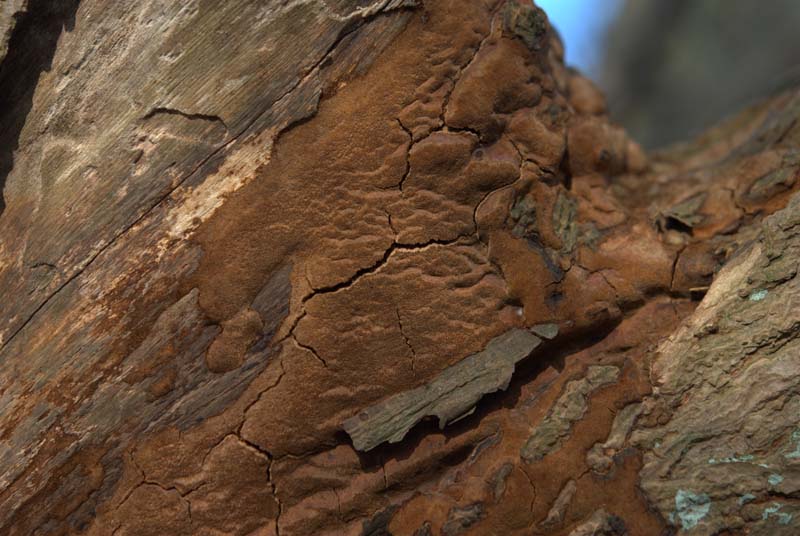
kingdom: Fungi
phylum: Basidiomycota
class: Agaricomycetes
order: Hymenochaetales
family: Hymenochaetaceae
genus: Fuscoporia
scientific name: Fuscoporia ferrea
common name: skorpe-ildporesvamp
